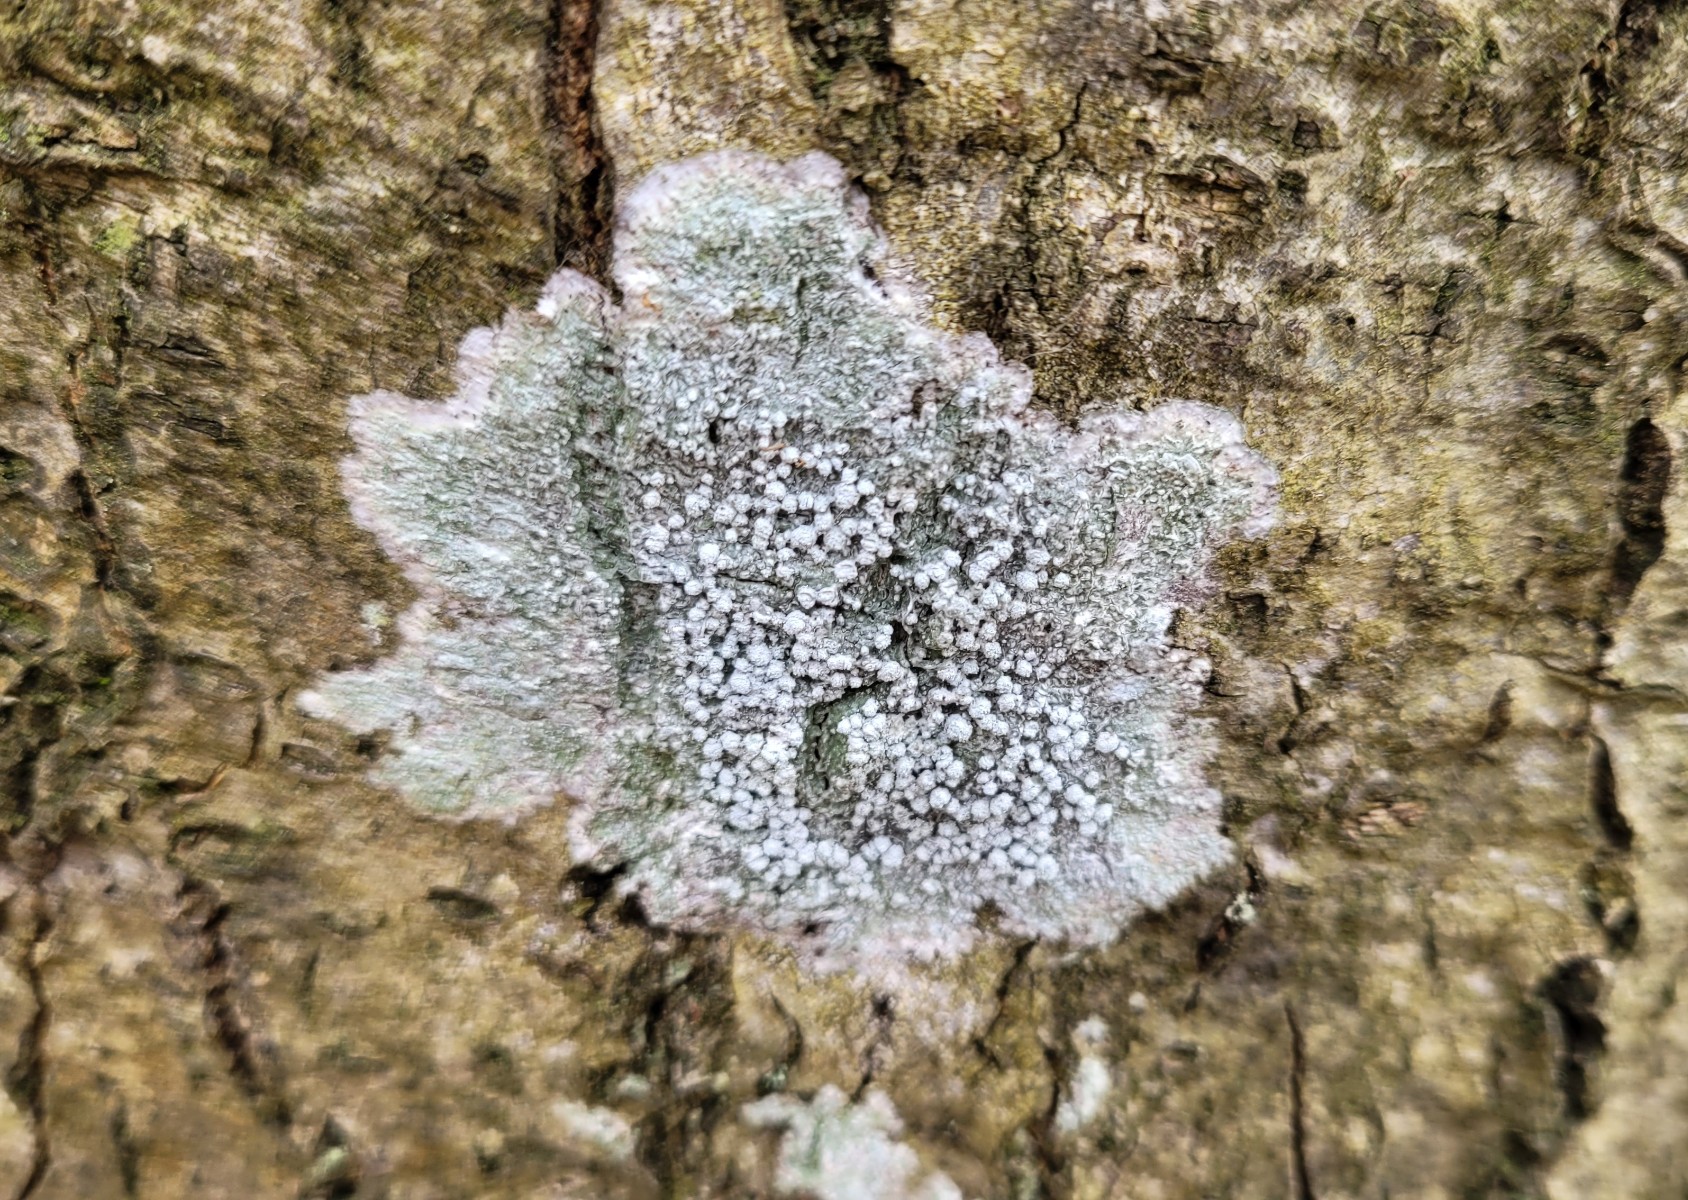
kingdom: Fungi
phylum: Ascomycota
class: Lecanoromycetes
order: Pertusariales
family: Pertusariaceae
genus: Lepra
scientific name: Lepra amara
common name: bitter prikvortelav
